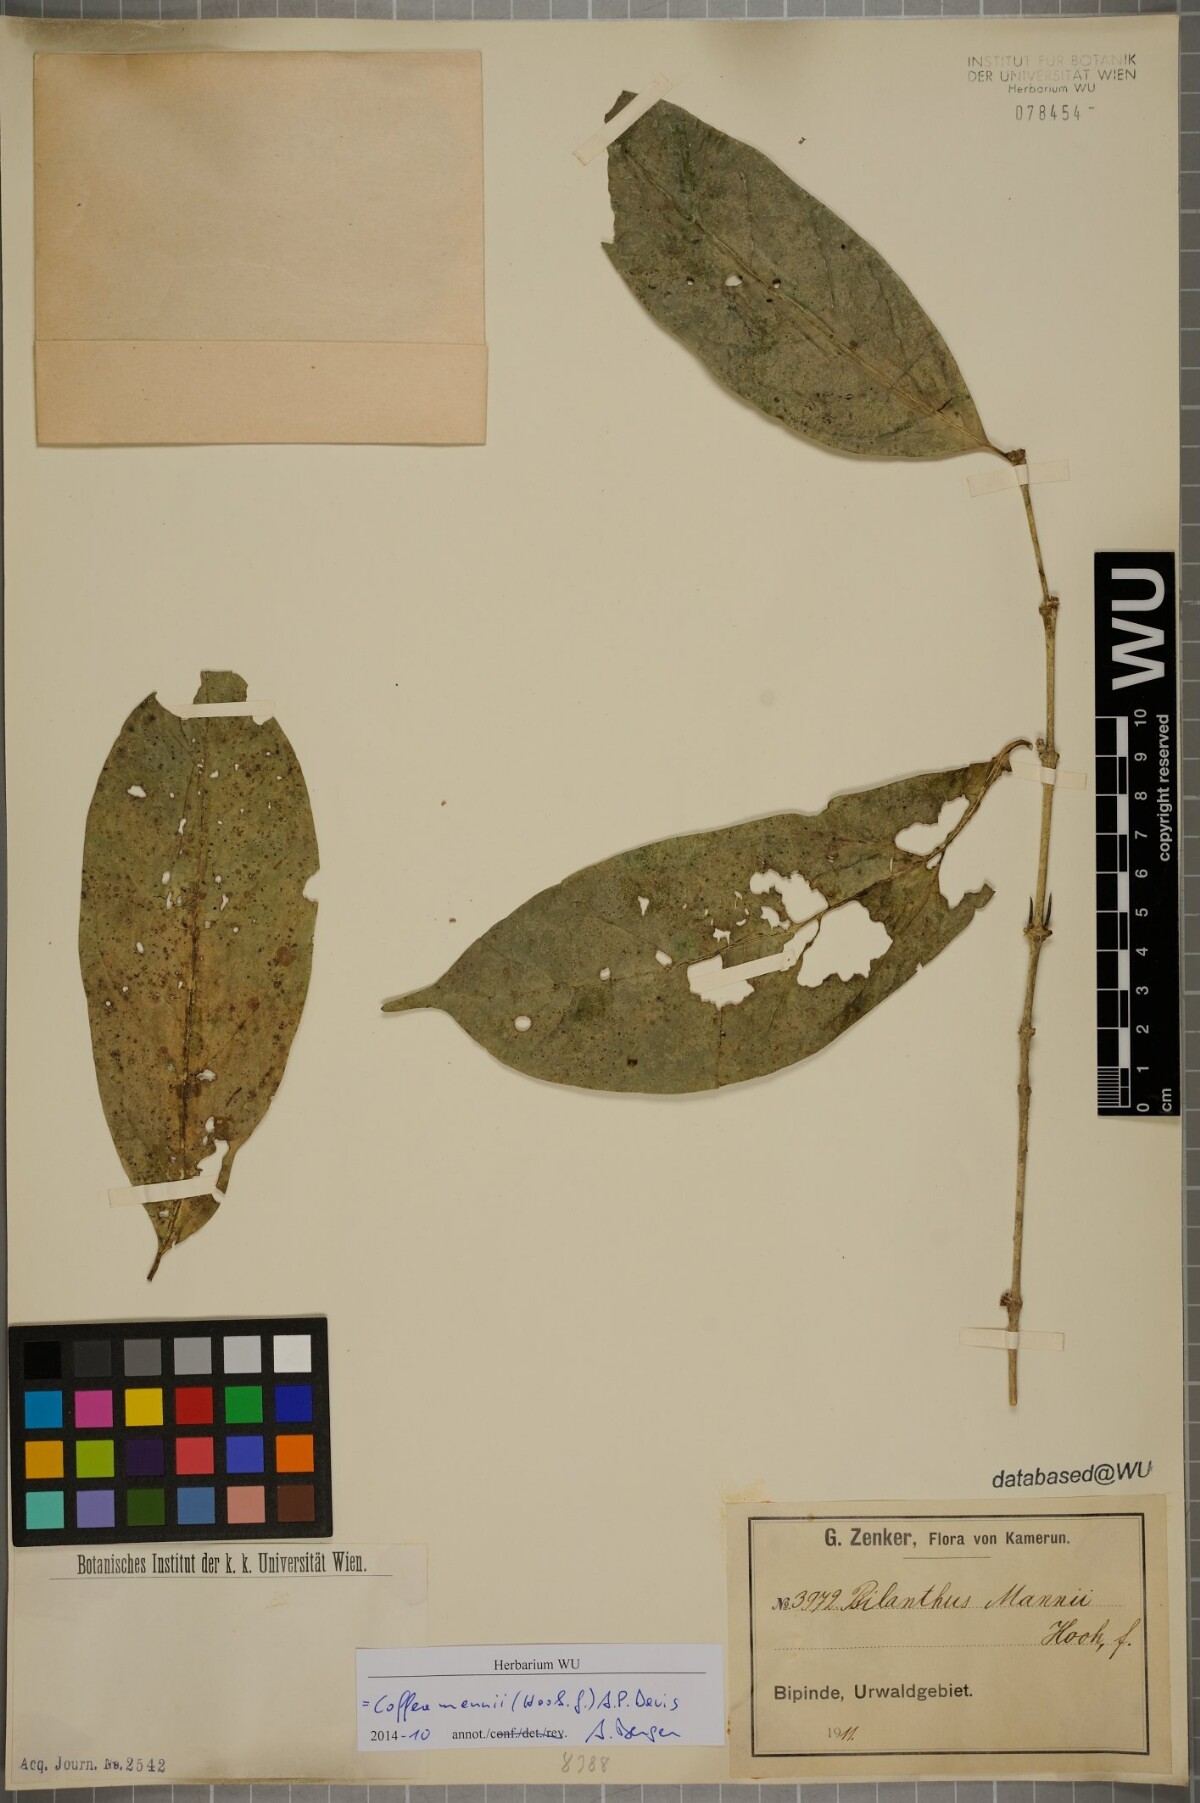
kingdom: Plantae
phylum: Tracheophyta
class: Magnoliopsida
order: Gentianales
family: Rubiaceae
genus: Coffea
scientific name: Coffea mannii
